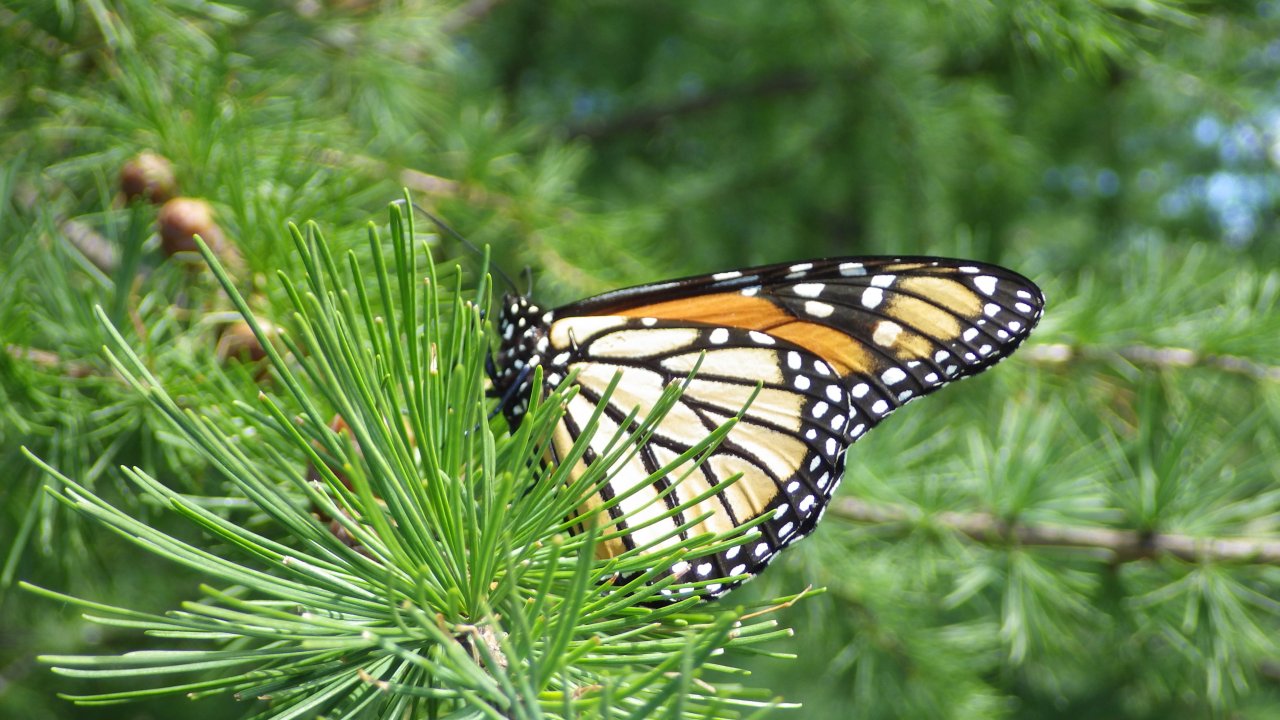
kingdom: Animalia
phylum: Arthropoda
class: Insecta
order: Lepidoptera
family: Nymphalidae
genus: Danaus
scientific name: Danaus plexippus
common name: Monarch
